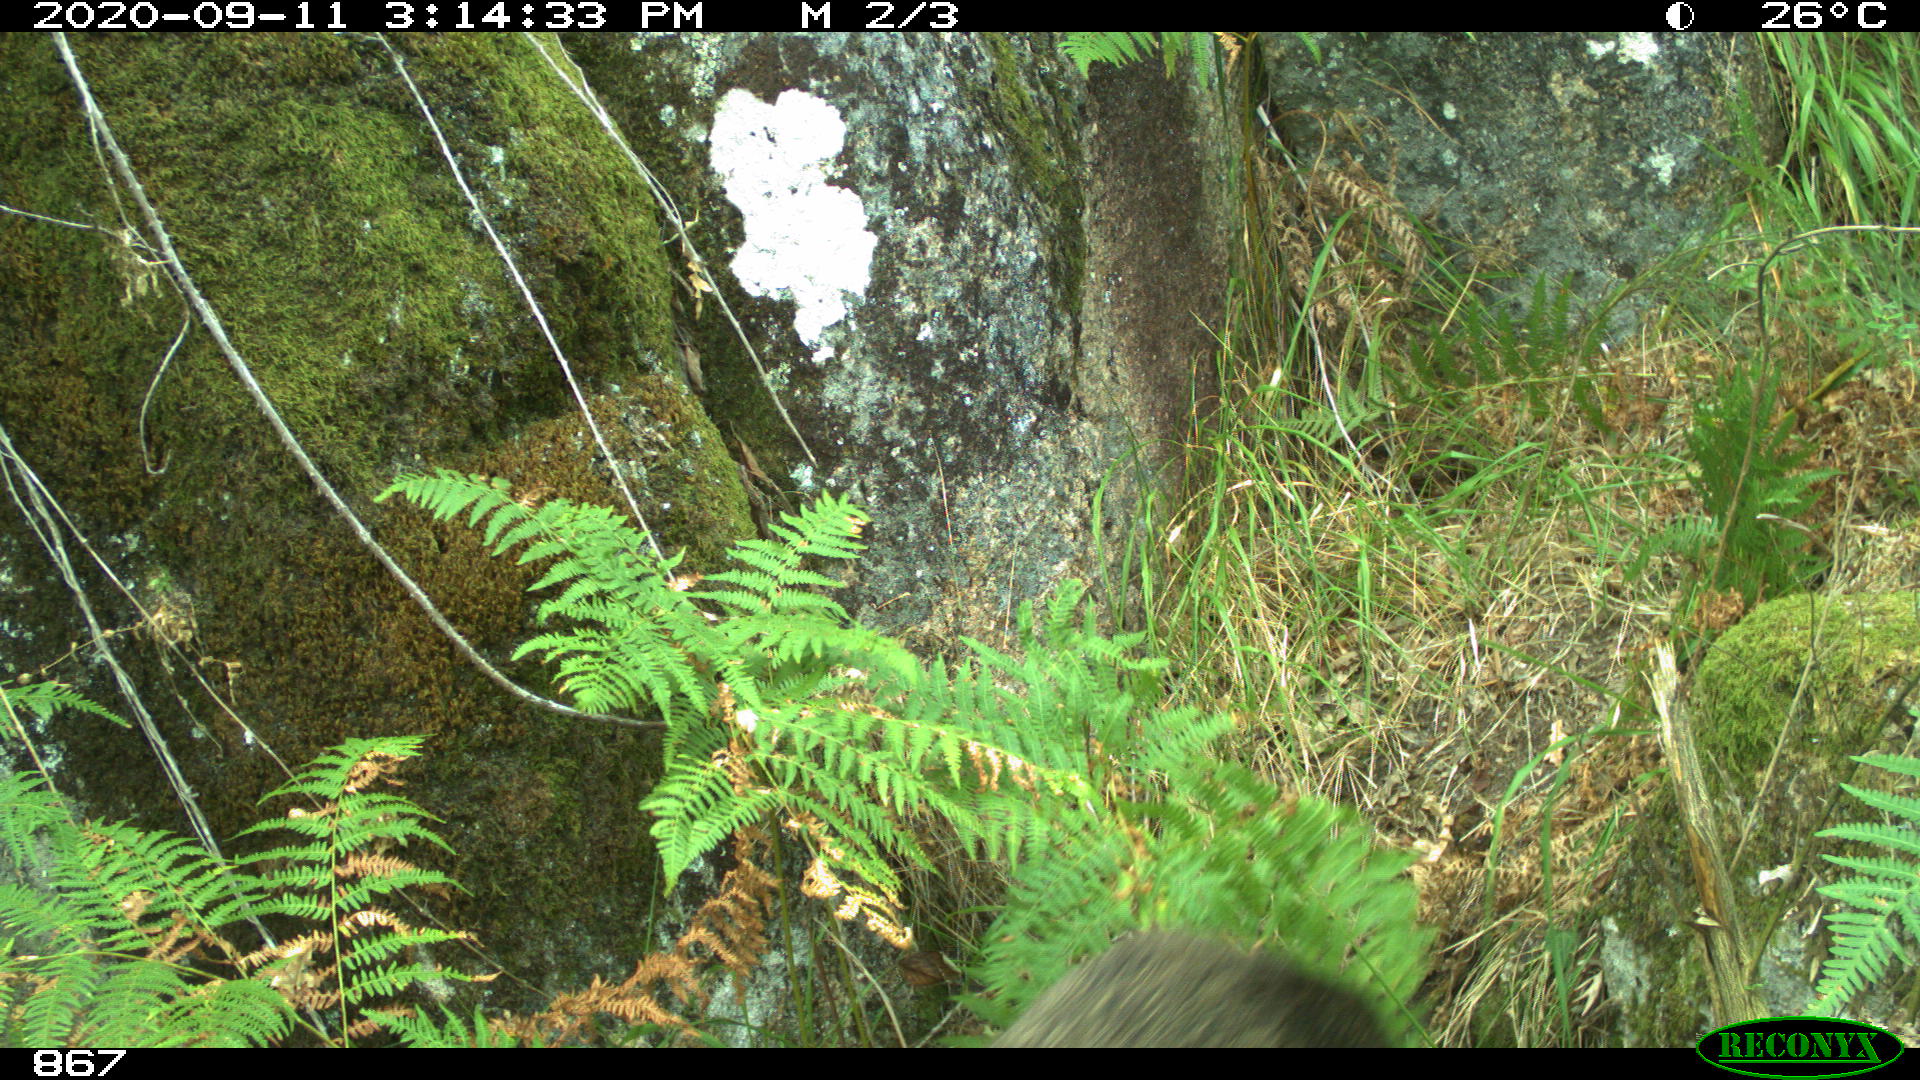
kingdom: Animalia
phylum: Chordata
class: Mammalia
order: Artiodactyla
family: Suidae
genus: Sus
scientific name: Sus scrofa
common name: Wild boar
